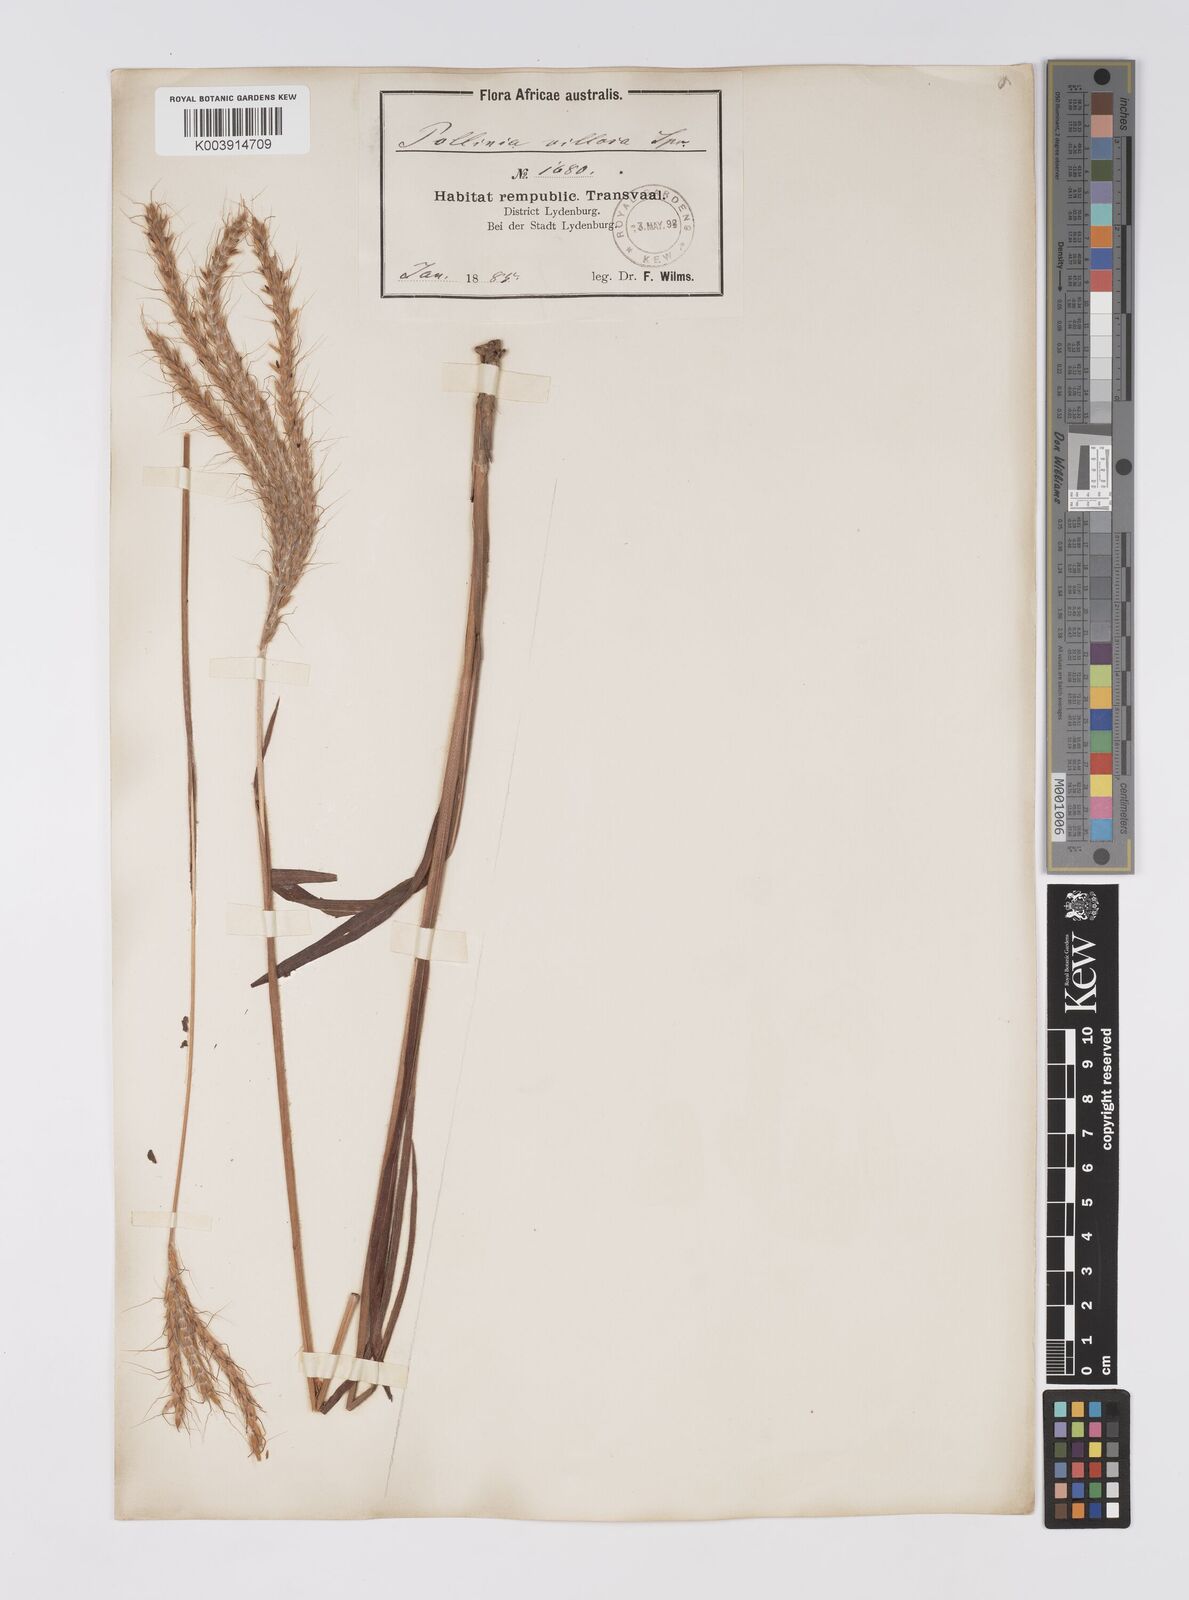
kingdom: Plantae
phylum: Tracheophyta
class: Liliopsida
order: Poales
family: Poaceae
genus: Eulalia
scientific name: Eulalia villosa
